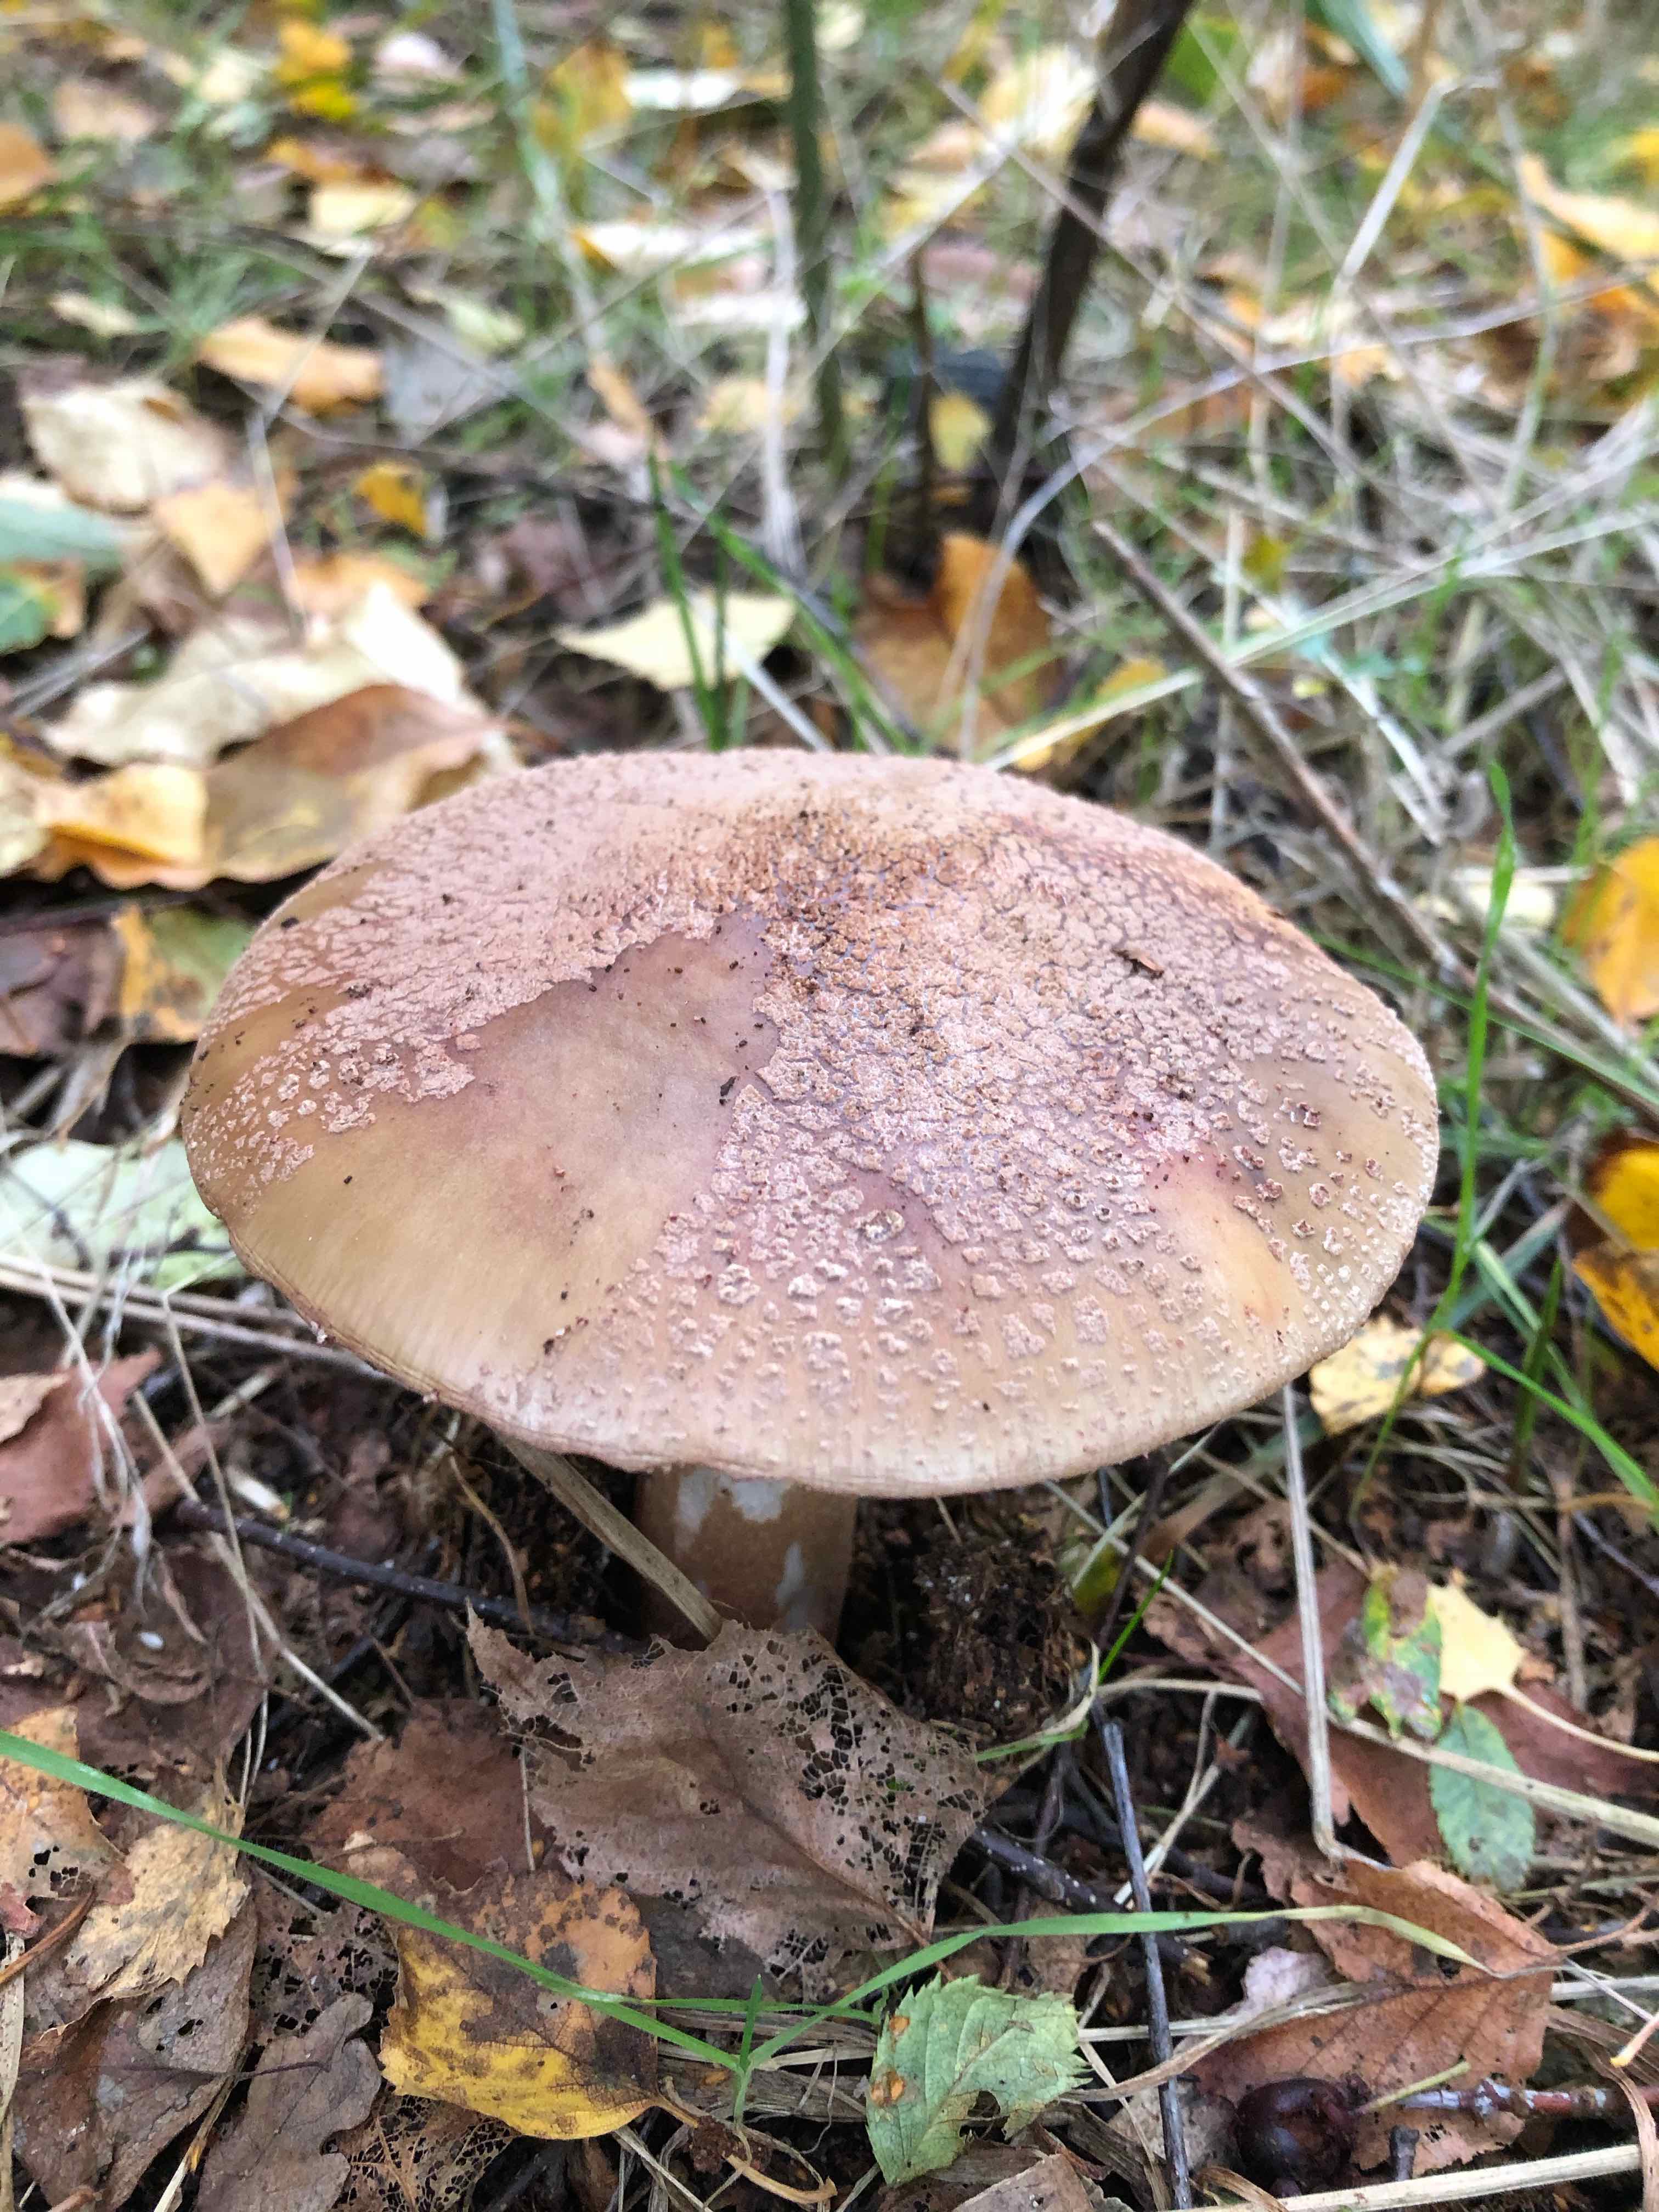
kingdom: Fungi
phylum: Basidiomycota
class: Agaricomycetes
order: Agaricales
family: Amanitaceae
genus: Amanita
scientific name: Amanita rubescens
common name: rødmende fluesvamp
